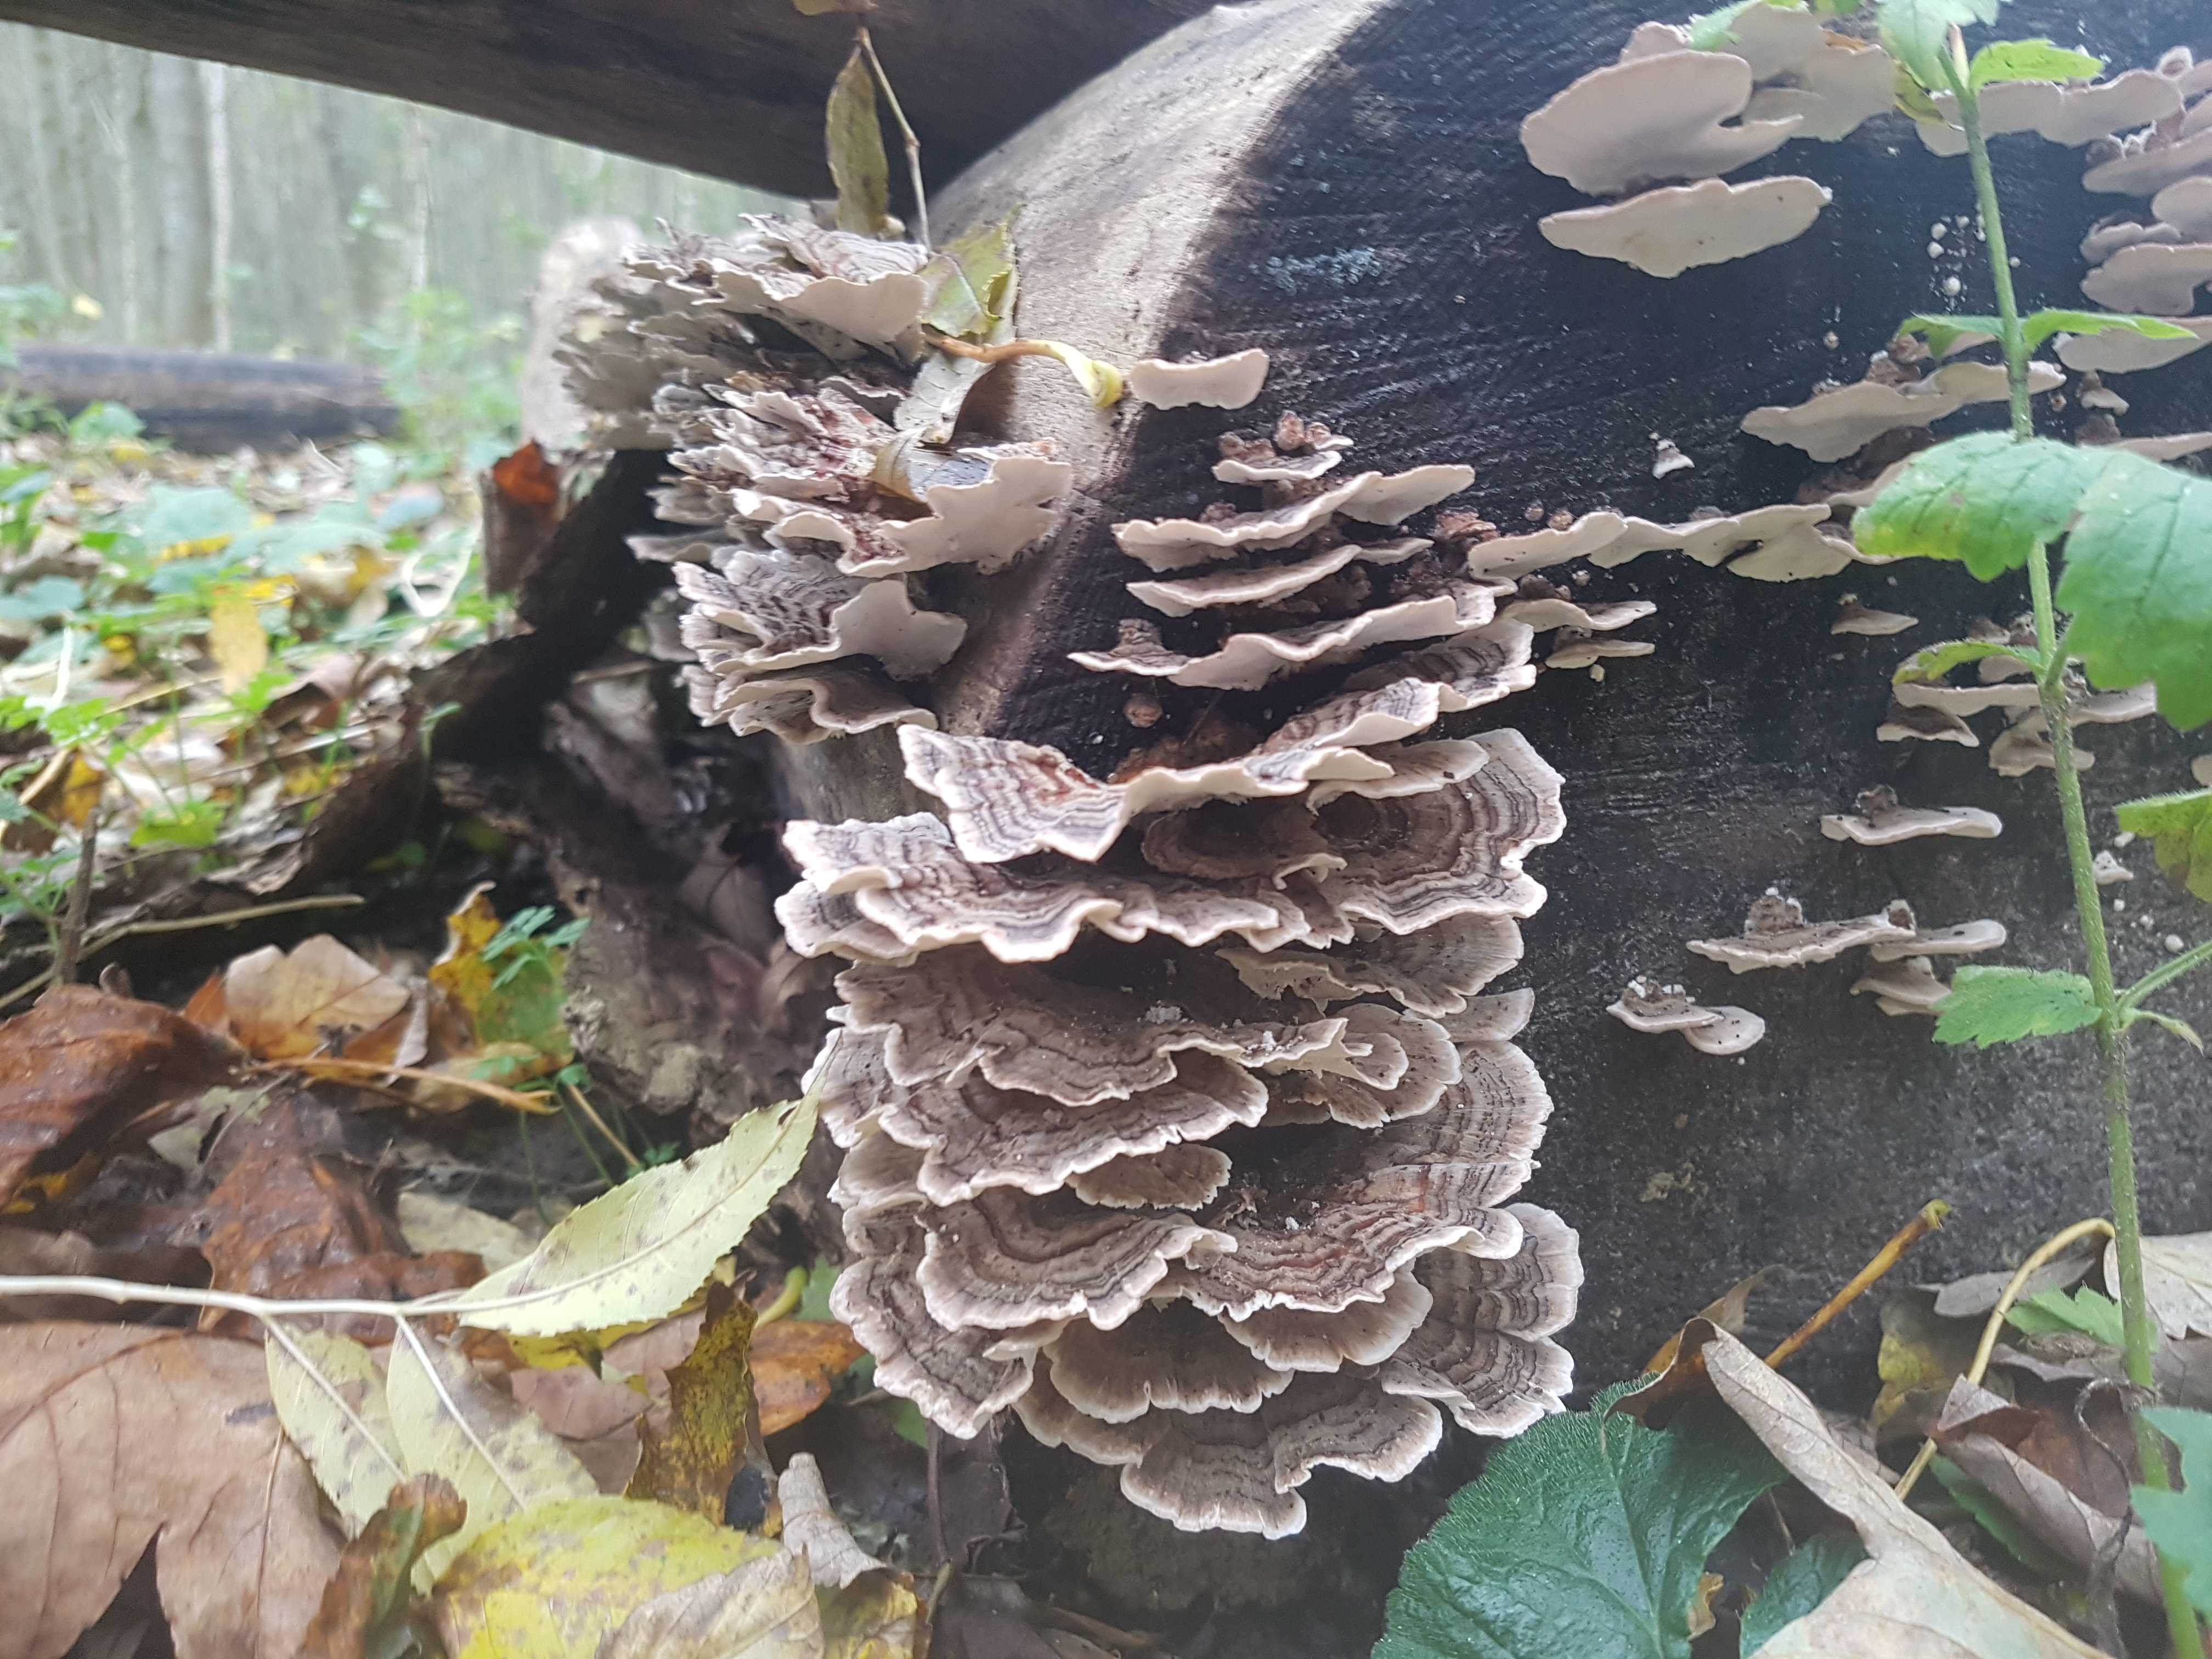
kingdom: Fungi
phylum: Basidiomycota
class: Agaricomycetes
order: Polyporales
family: Polyporaceae
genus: Trametes
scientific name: Trametes versicolor
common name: broget læderporesvamp
